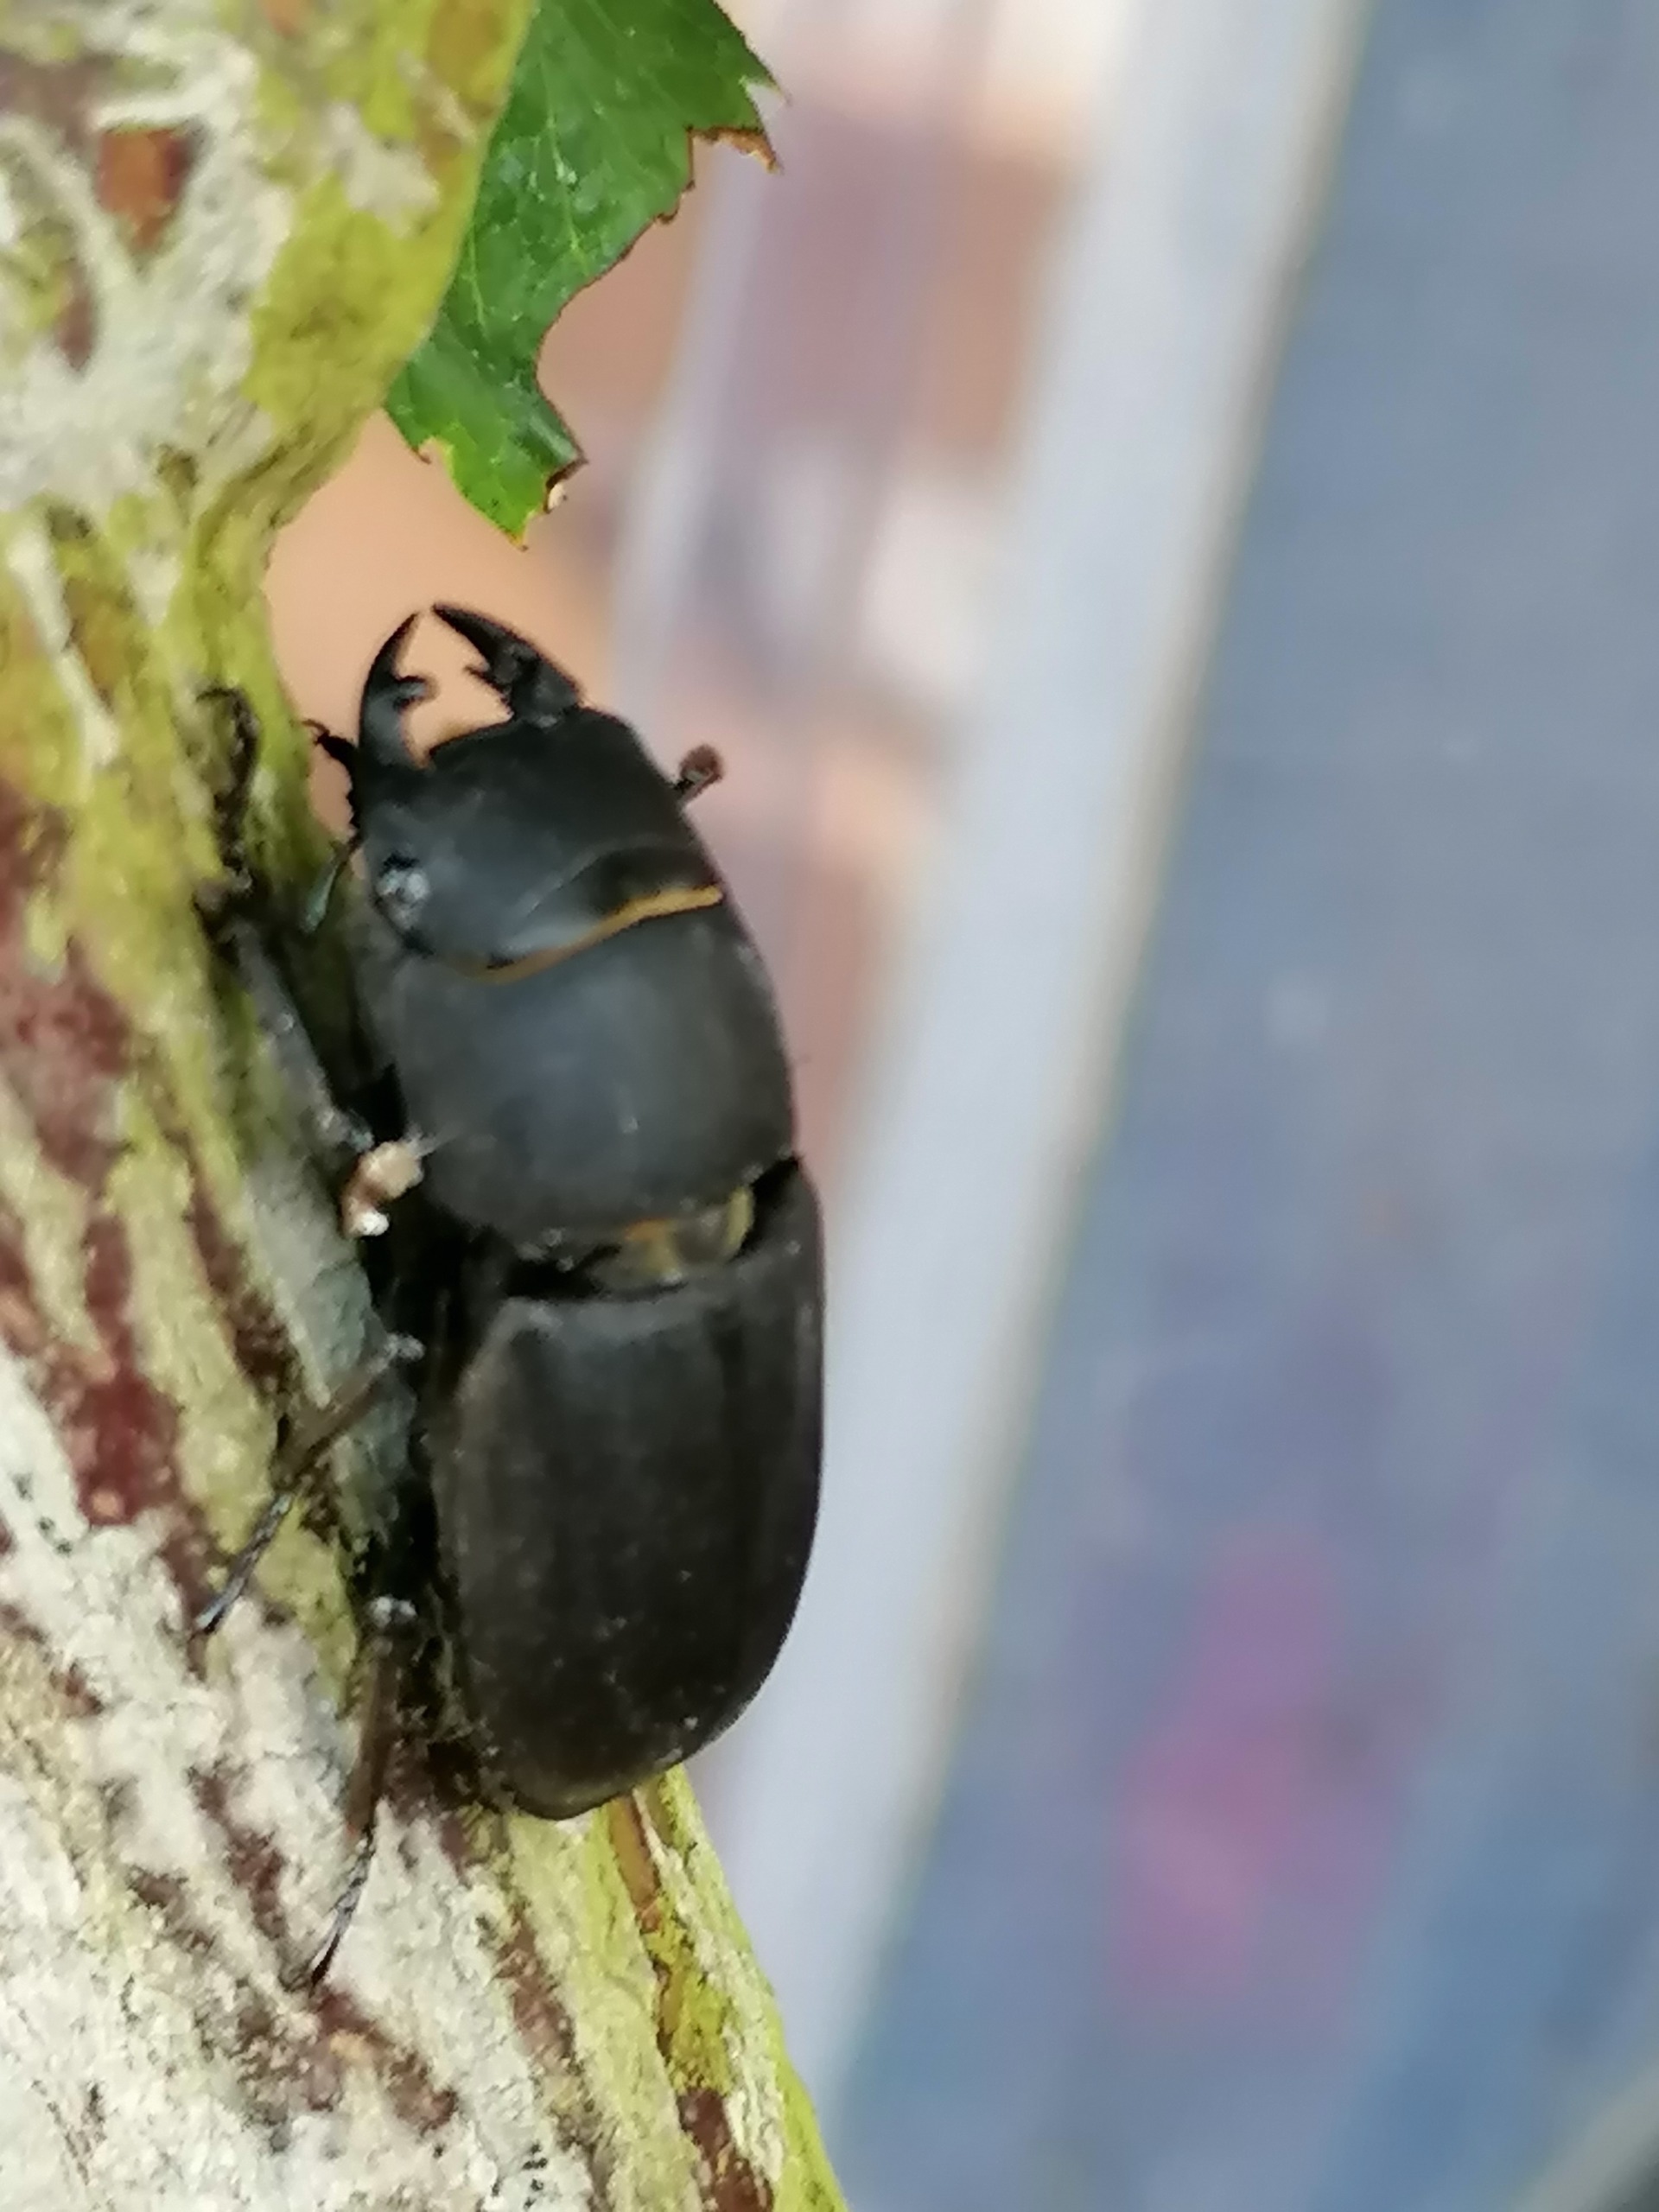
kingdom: Animalia
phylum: Arthropoda
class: Insecta
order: Coleoptera
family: Lucanidae
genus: Dorcus
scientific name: Dorcus parallelipipedus
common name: Bøghjort
